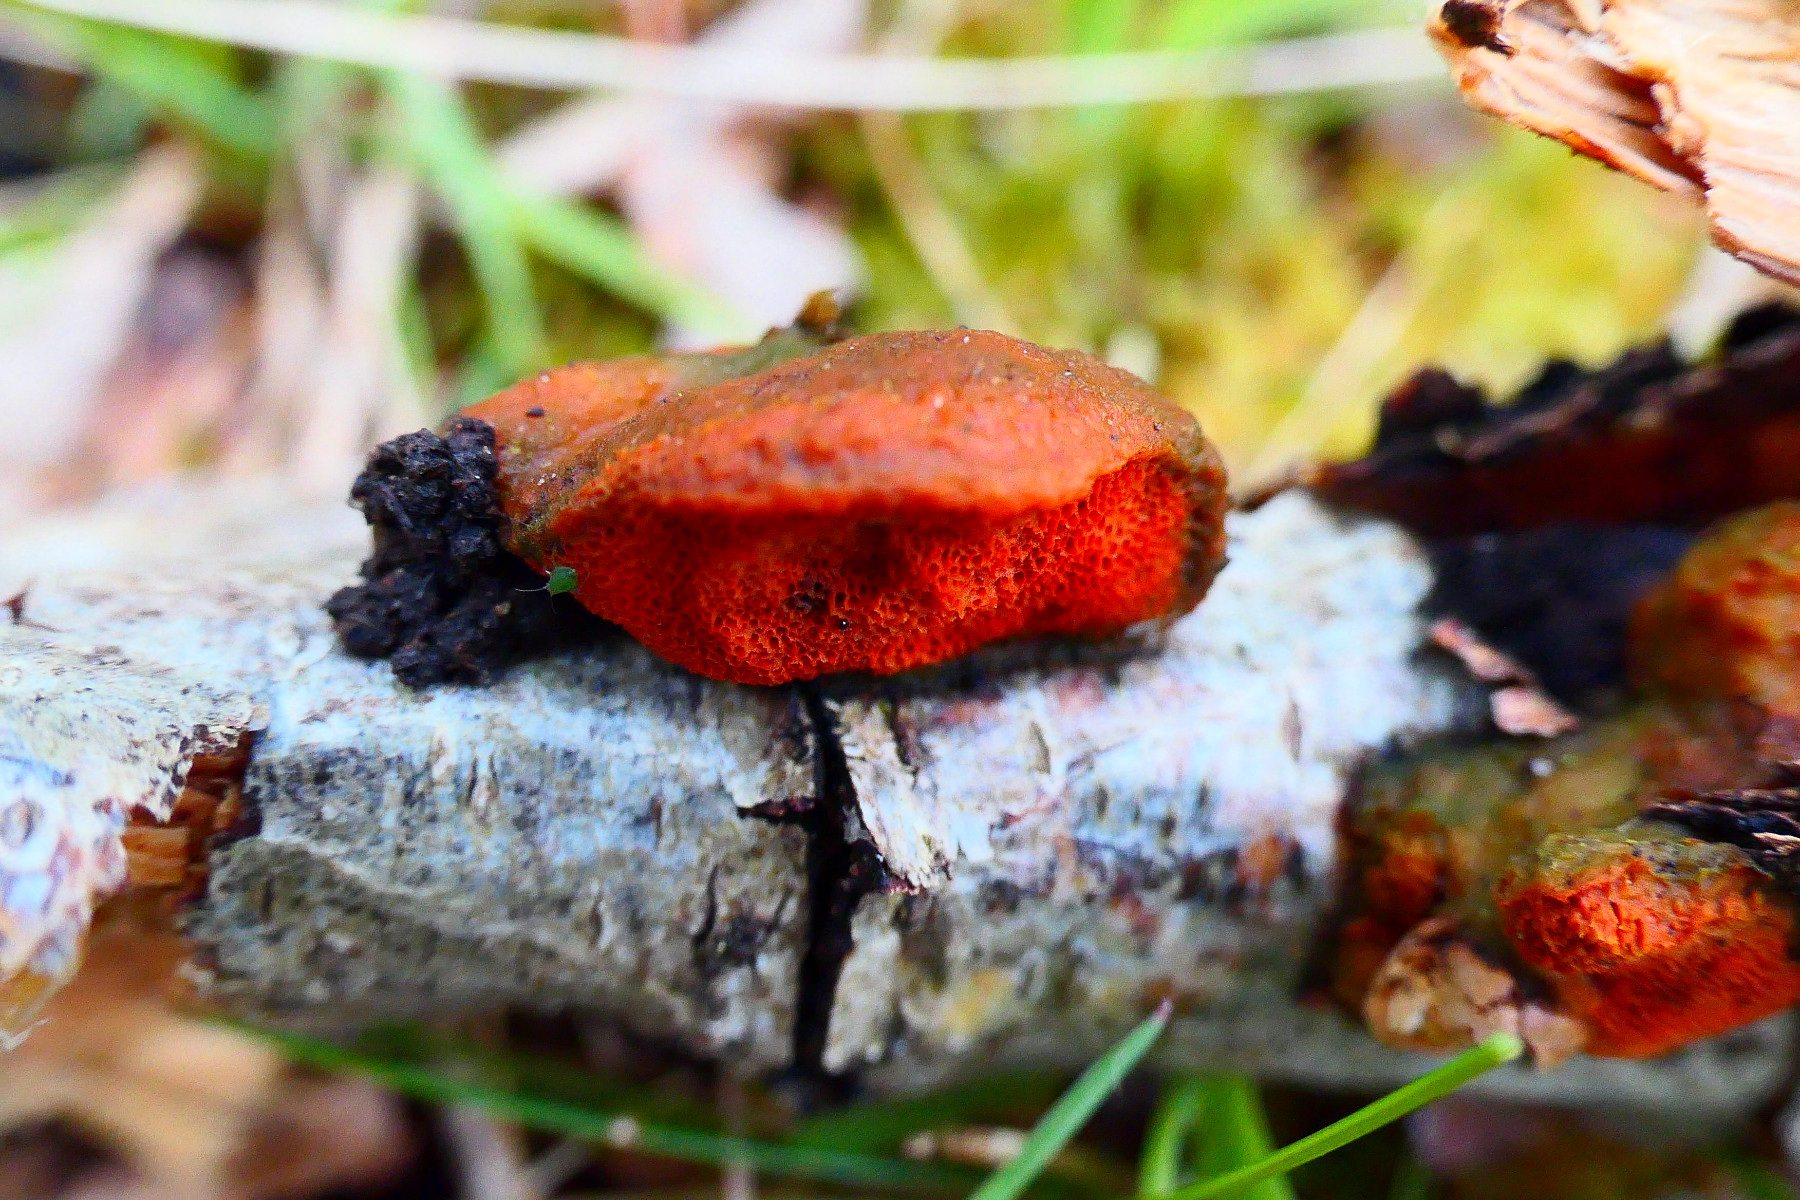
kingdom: Fungi
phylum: Basidiomycota
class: Agaricomycetes
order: Polyporales
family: Polyporaceae
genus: Trametes
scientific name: Trametes cinnabarina
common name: cinnoberporesvamp
